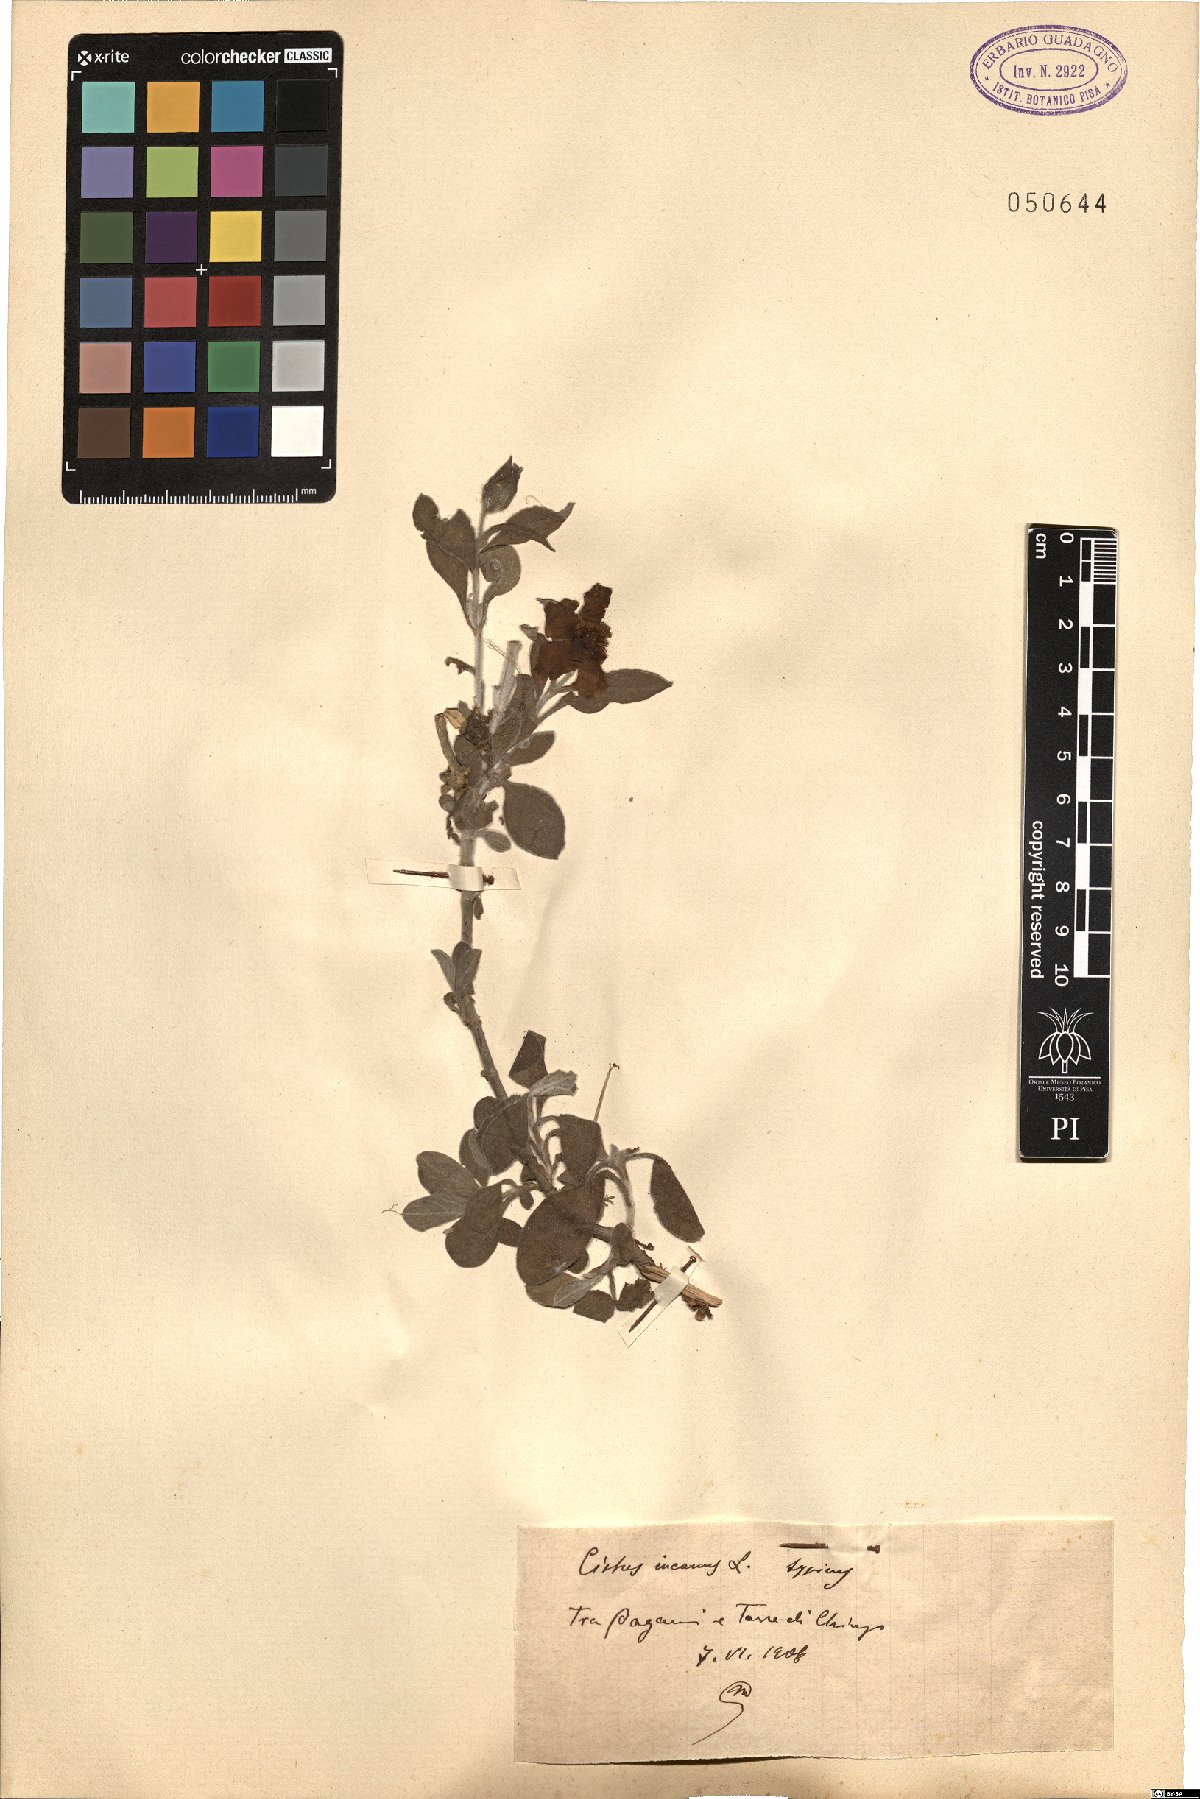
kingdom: Plantae
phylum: Tracheophyta
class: Magnoliopsida
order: Malvales
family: Cistaceae
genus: Cistus
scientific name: Cistus incanus
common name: Hairy rockrose
